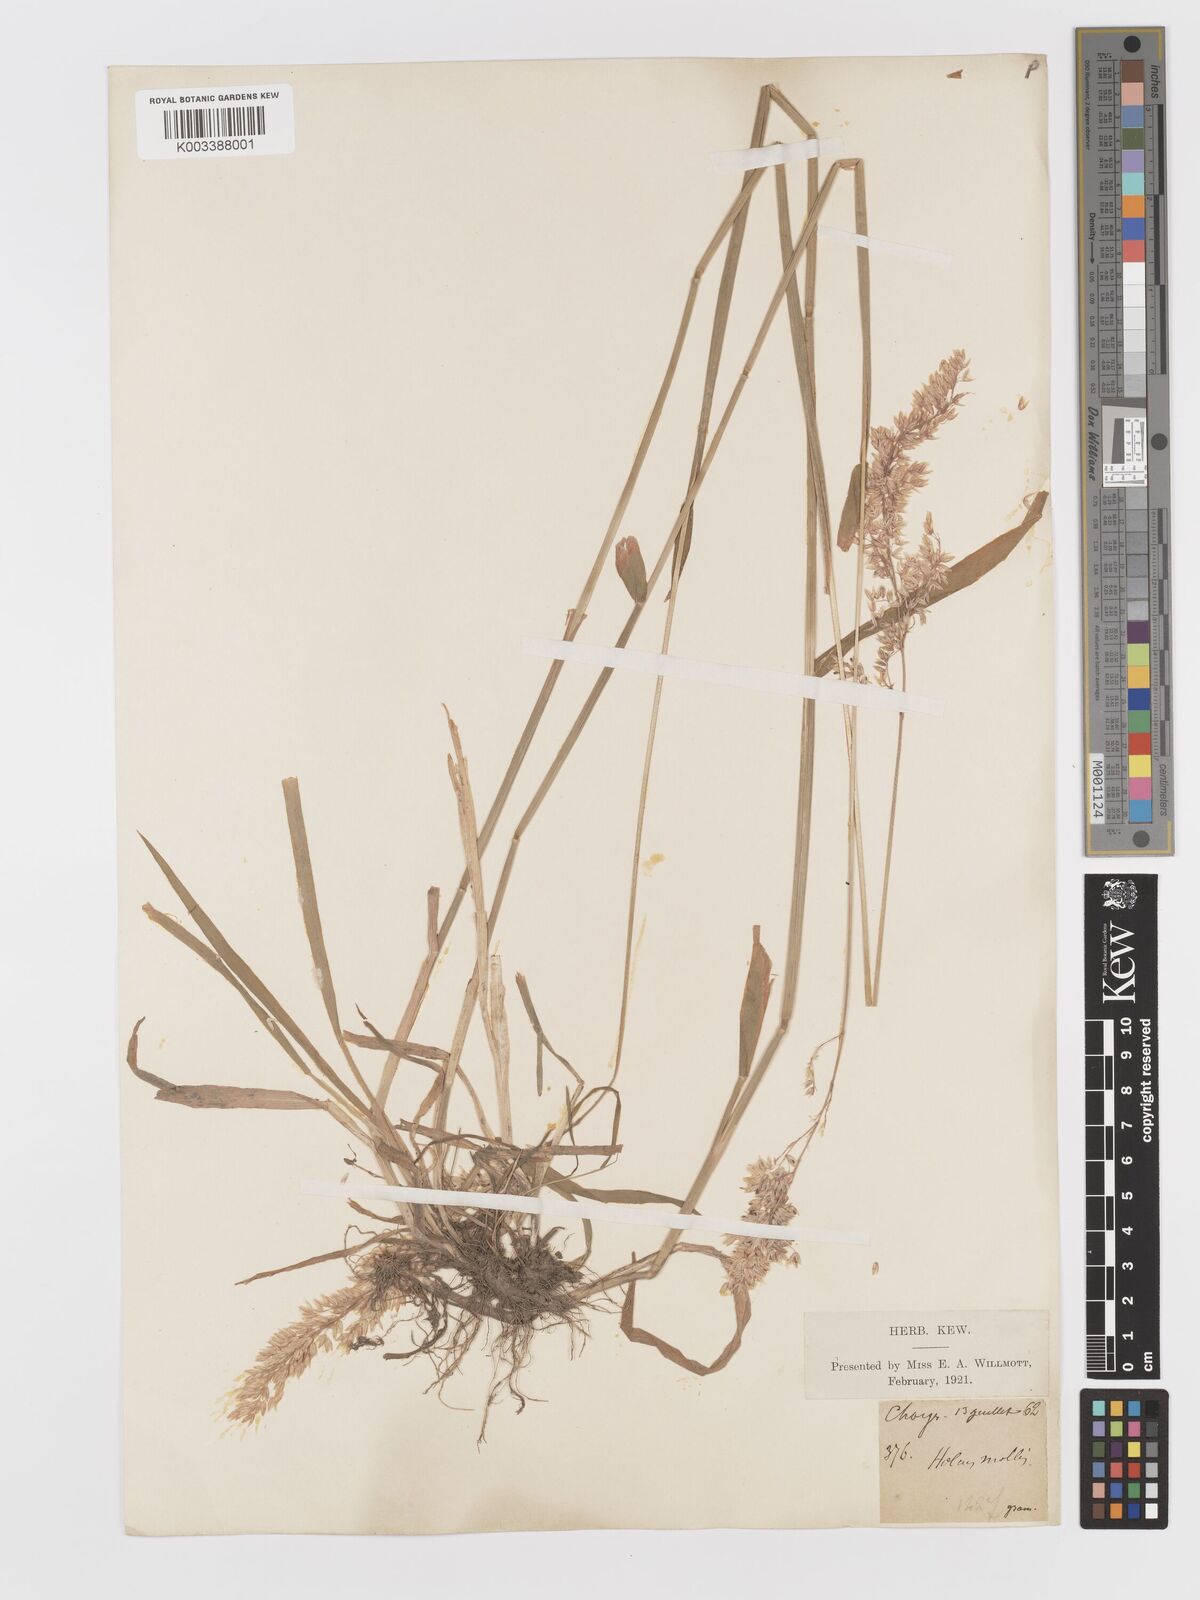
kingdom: Plantae
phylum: Tracheophyta
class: Liliopsida
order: Poales
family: Poaceae
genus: Holcus
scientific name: Holcus lanatus
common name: Yorkshire-fog
